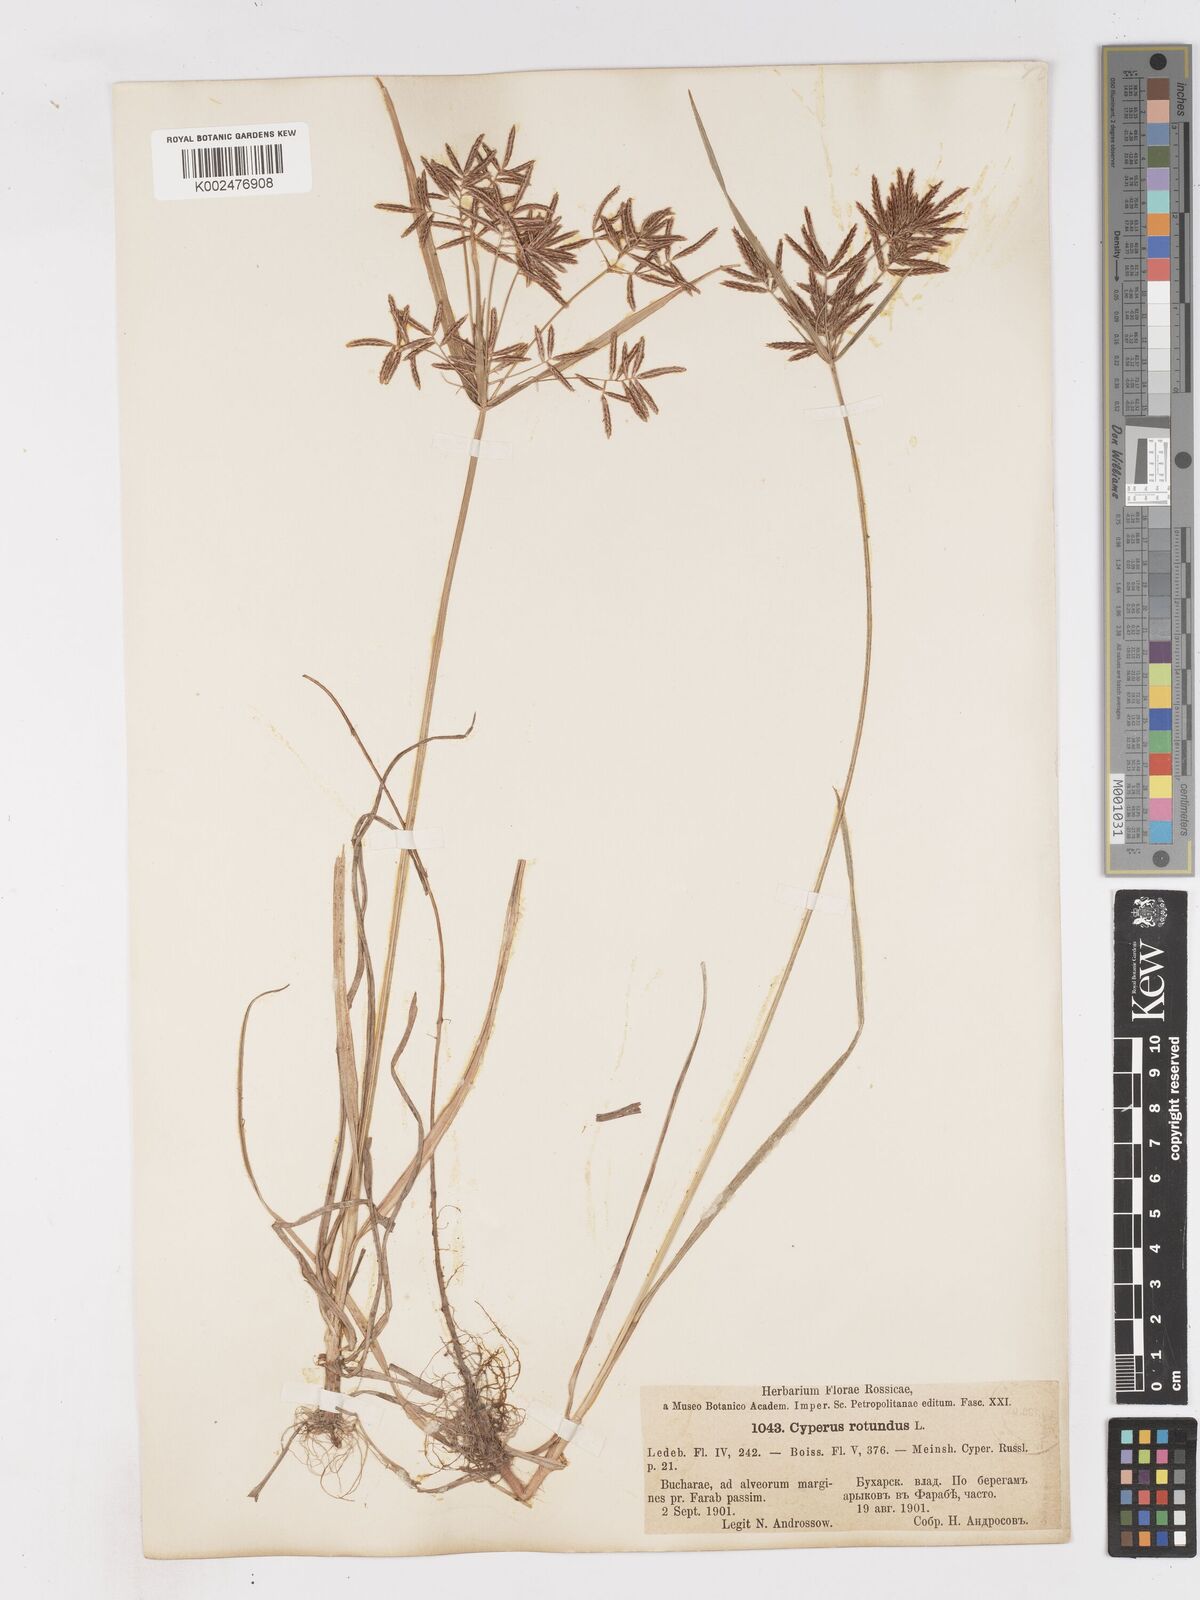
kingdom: Plantae
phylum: Tracheophyta
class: Liliopsida
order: Poales
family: Cyperaceae
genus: Cyperus
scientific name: Cyperus rotundus
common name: Nutgrass
